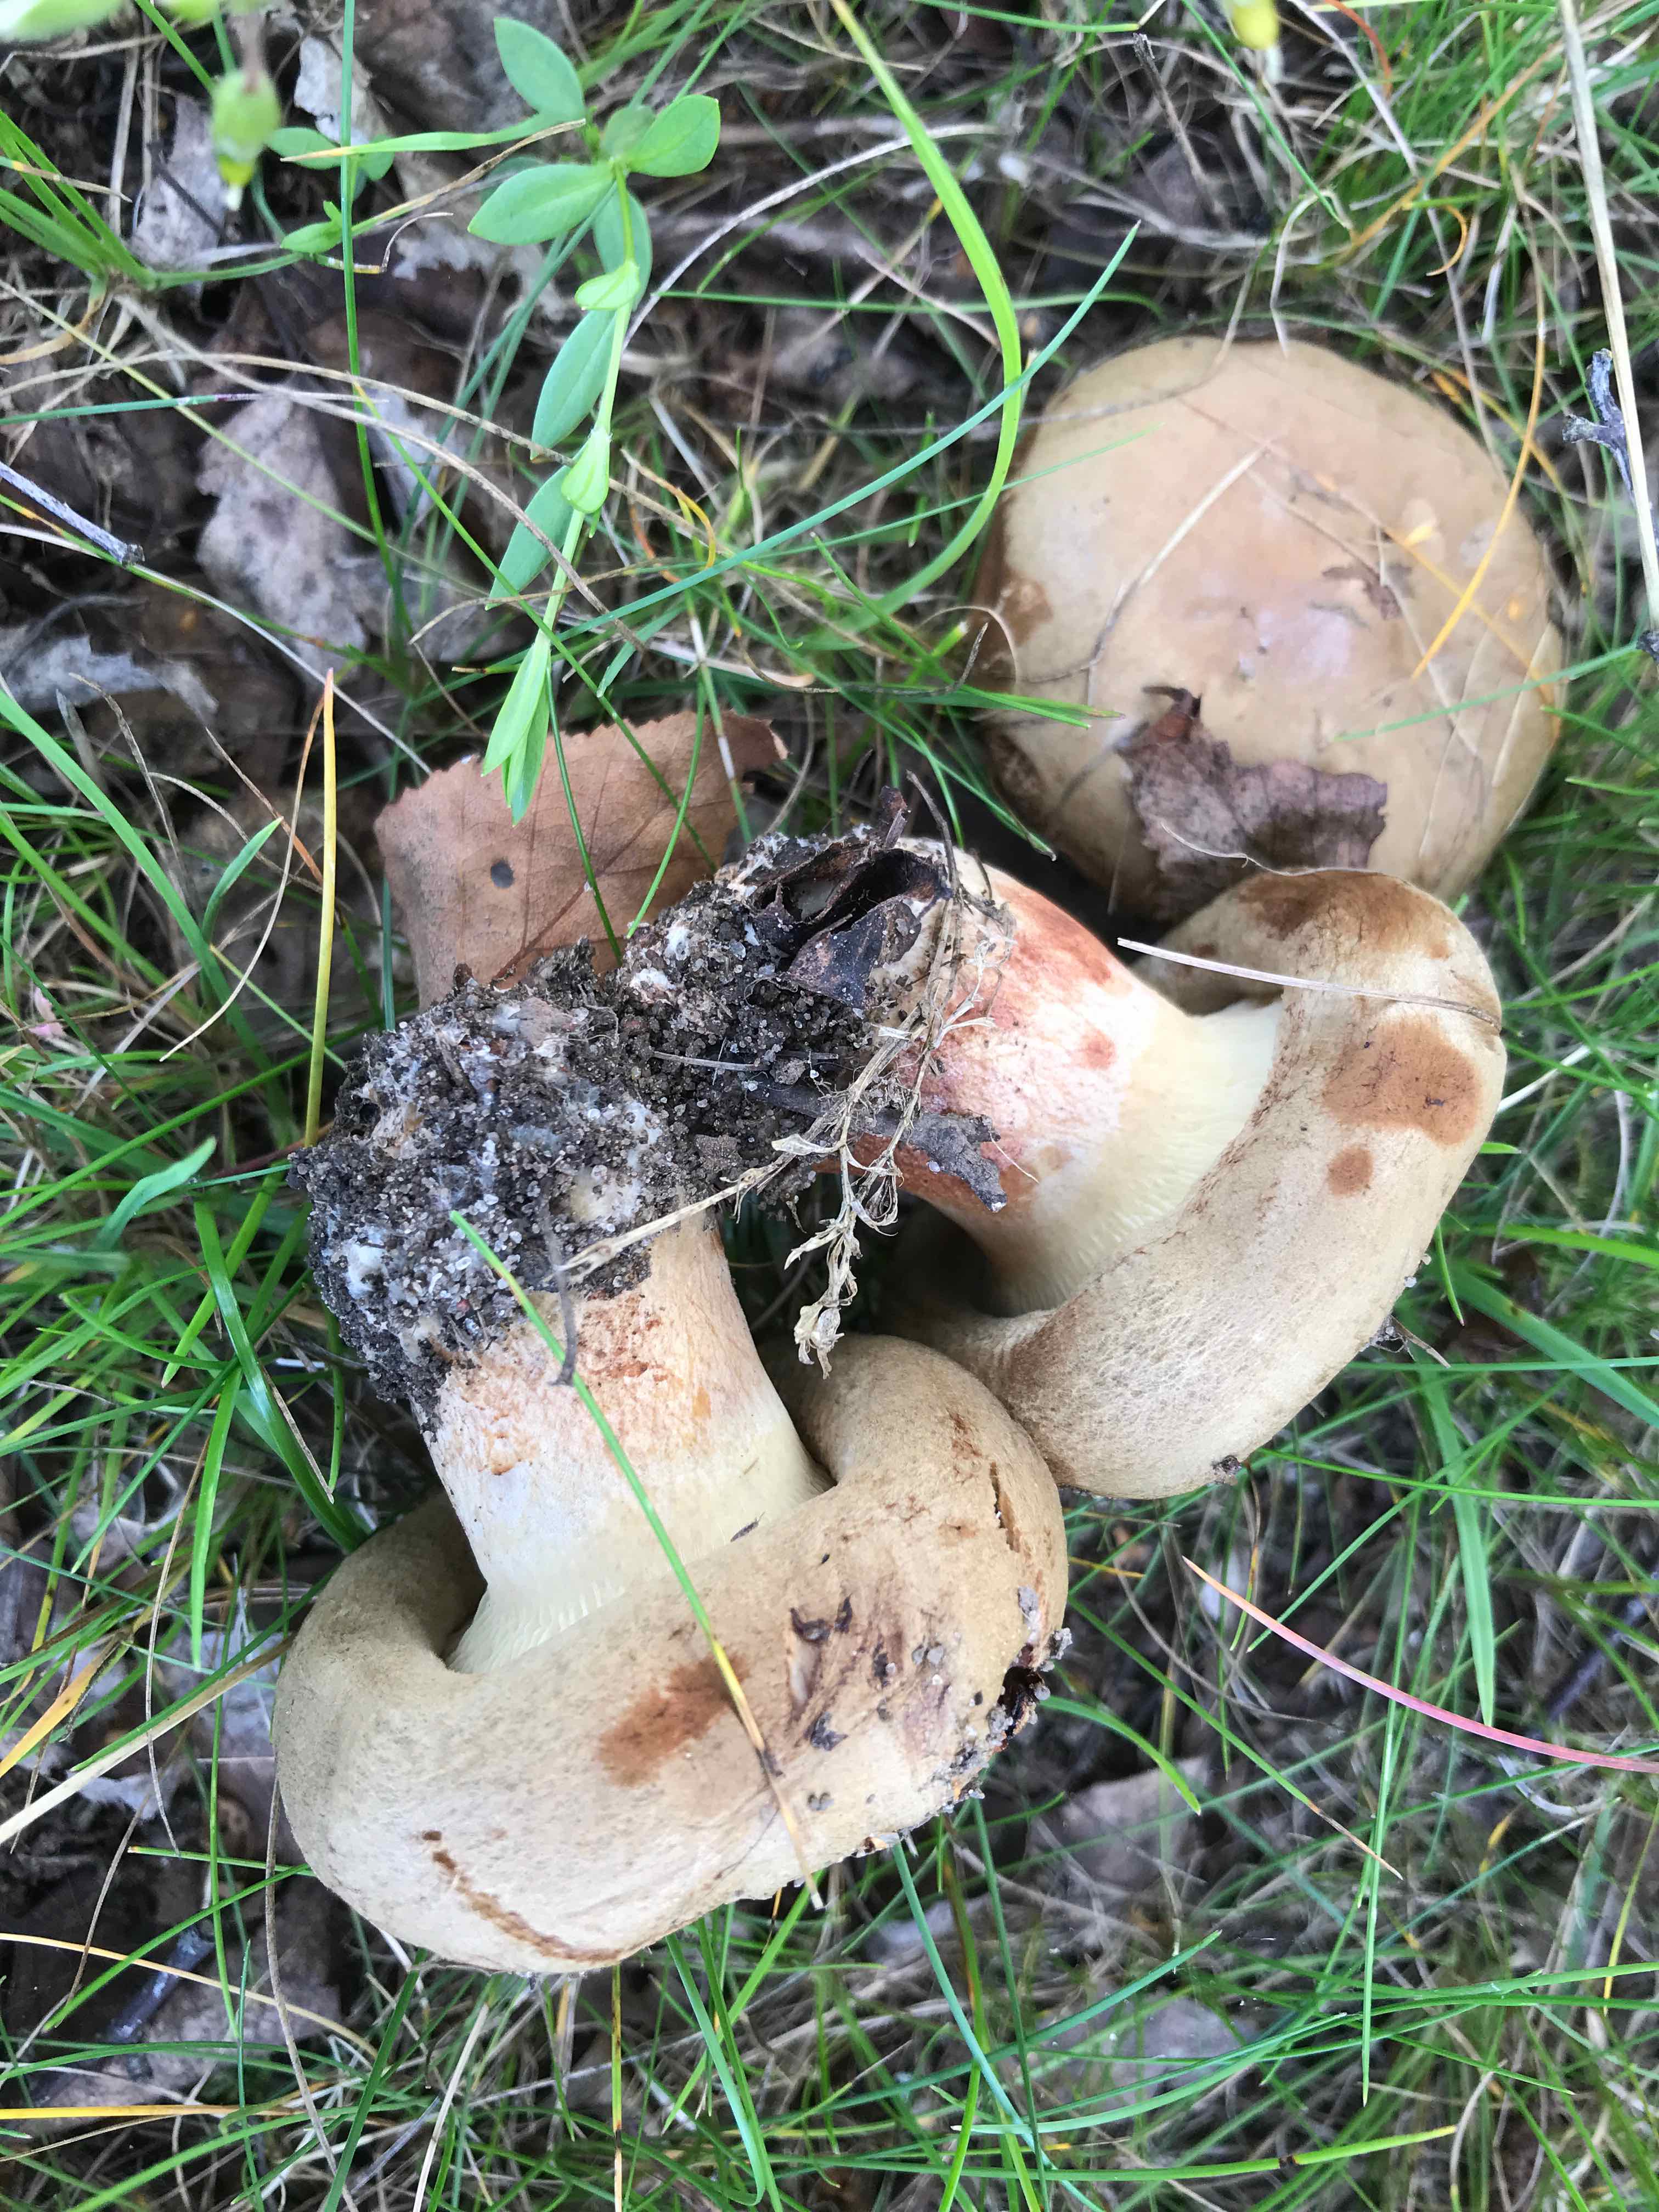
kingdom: Fungi
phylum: Basidiomycota
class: Agaricomycetes
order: Boletales
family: Paxillaceae
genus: Paxillus
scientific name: Paxillus
